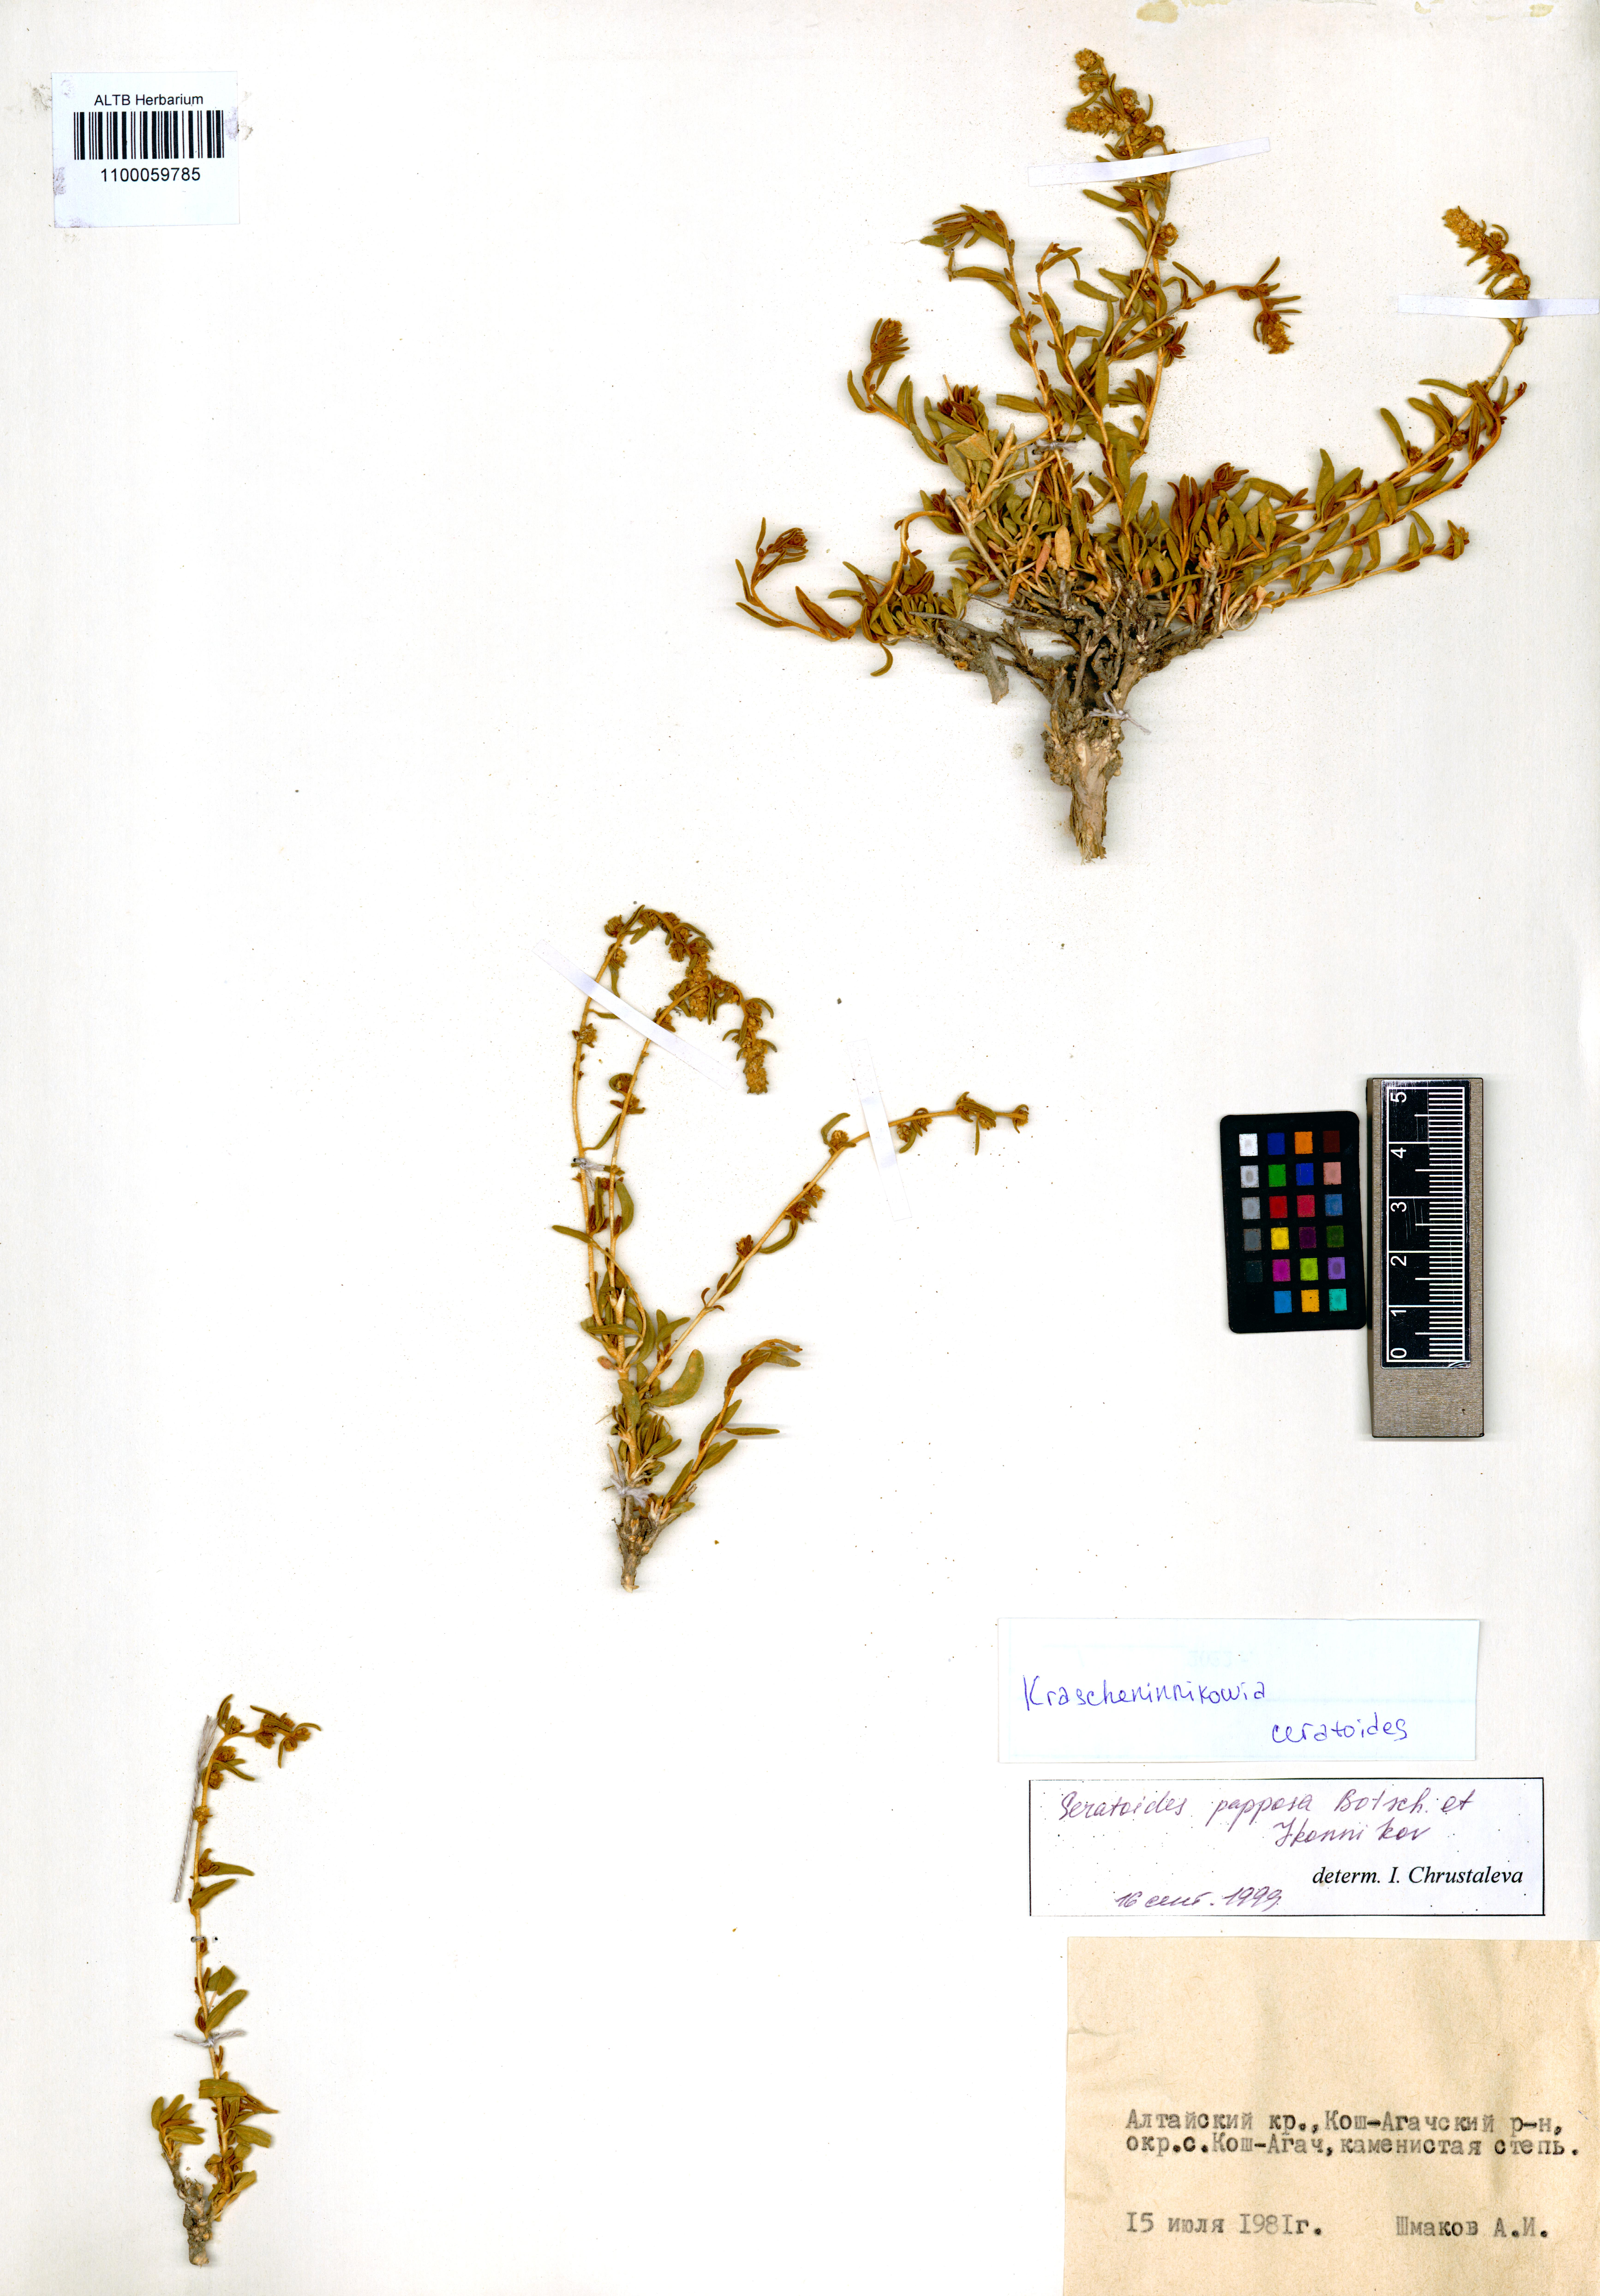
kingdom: Plantae
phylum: Tracheophyta
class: Magnoliopsida
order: Caryophyllales
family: Amaranthaceae
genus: Krascheninnikovia
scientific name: Krascheninnikovia ceratoides
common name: Pamirian winterfat
